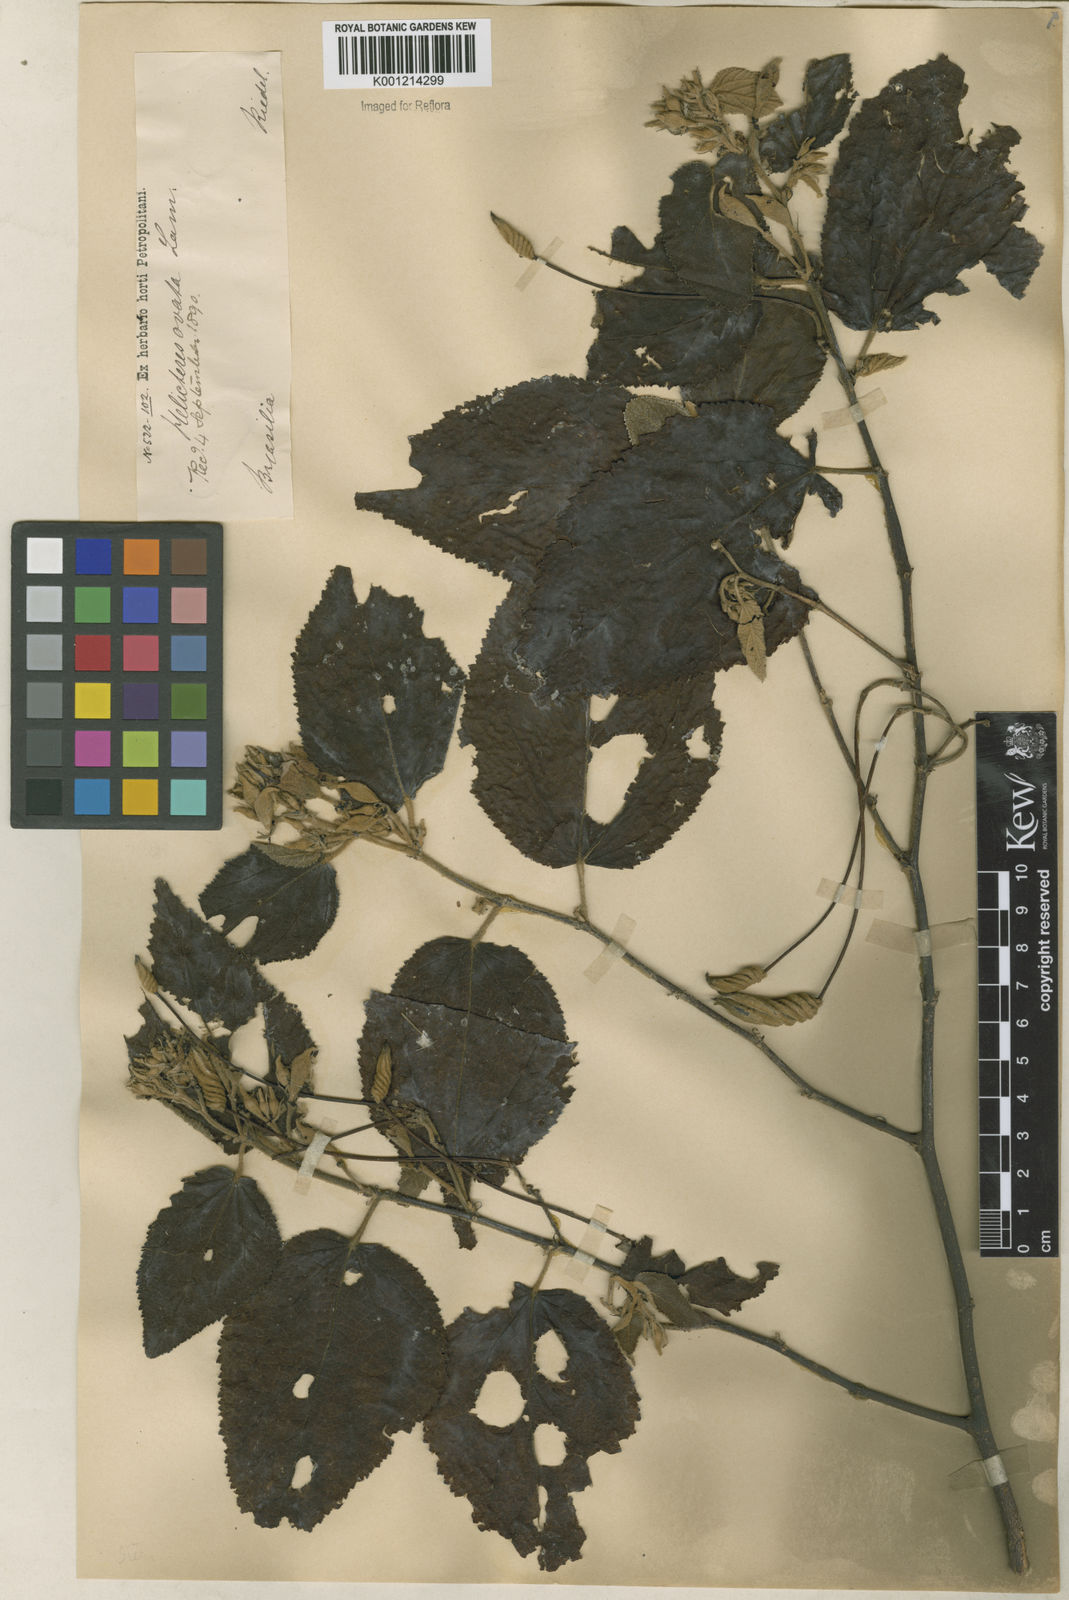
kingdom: Plantae
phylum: Tracheophyta
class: Magnoliopsida
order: Malvales
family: Malvaceae
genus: Helicteres
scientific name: Helicteres ovata
